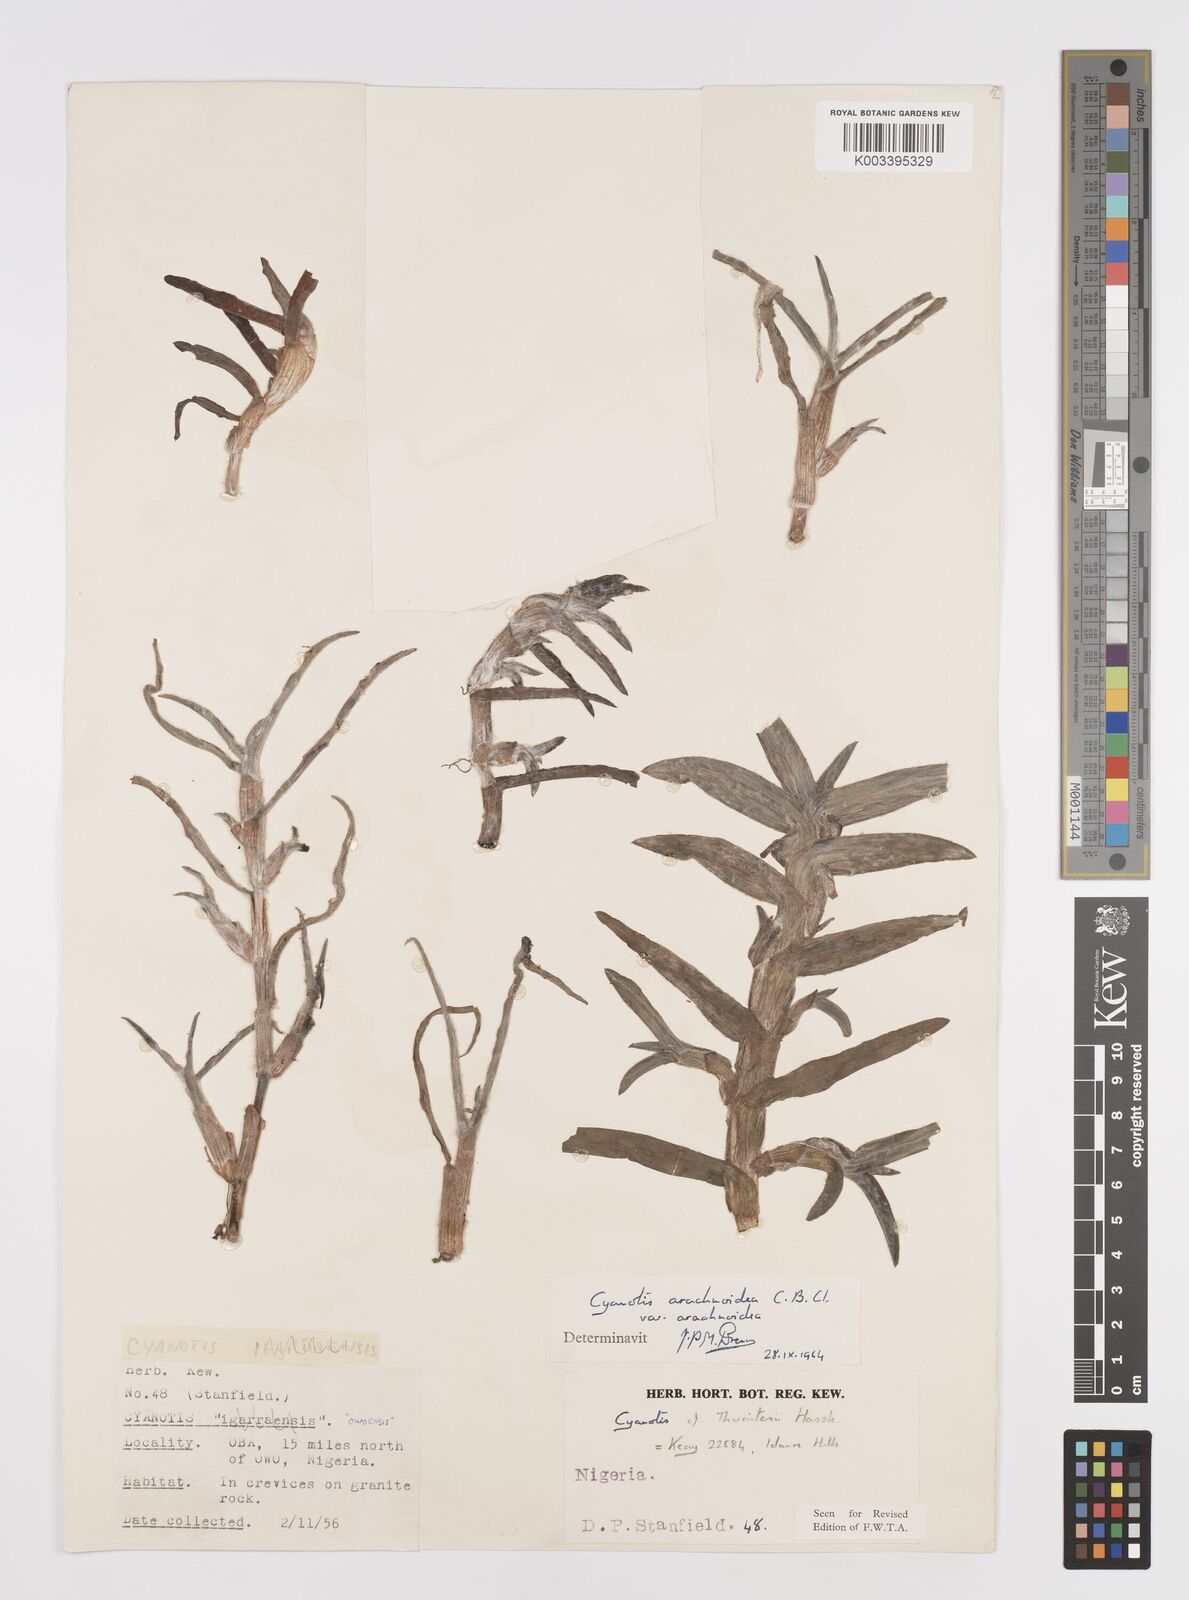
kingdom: Plantae
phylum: Tracheophyta
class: Liliopsida
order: Commelinales
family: Commelinaceae
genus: Cyanotis
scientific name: Cyanotis arachnoidea
